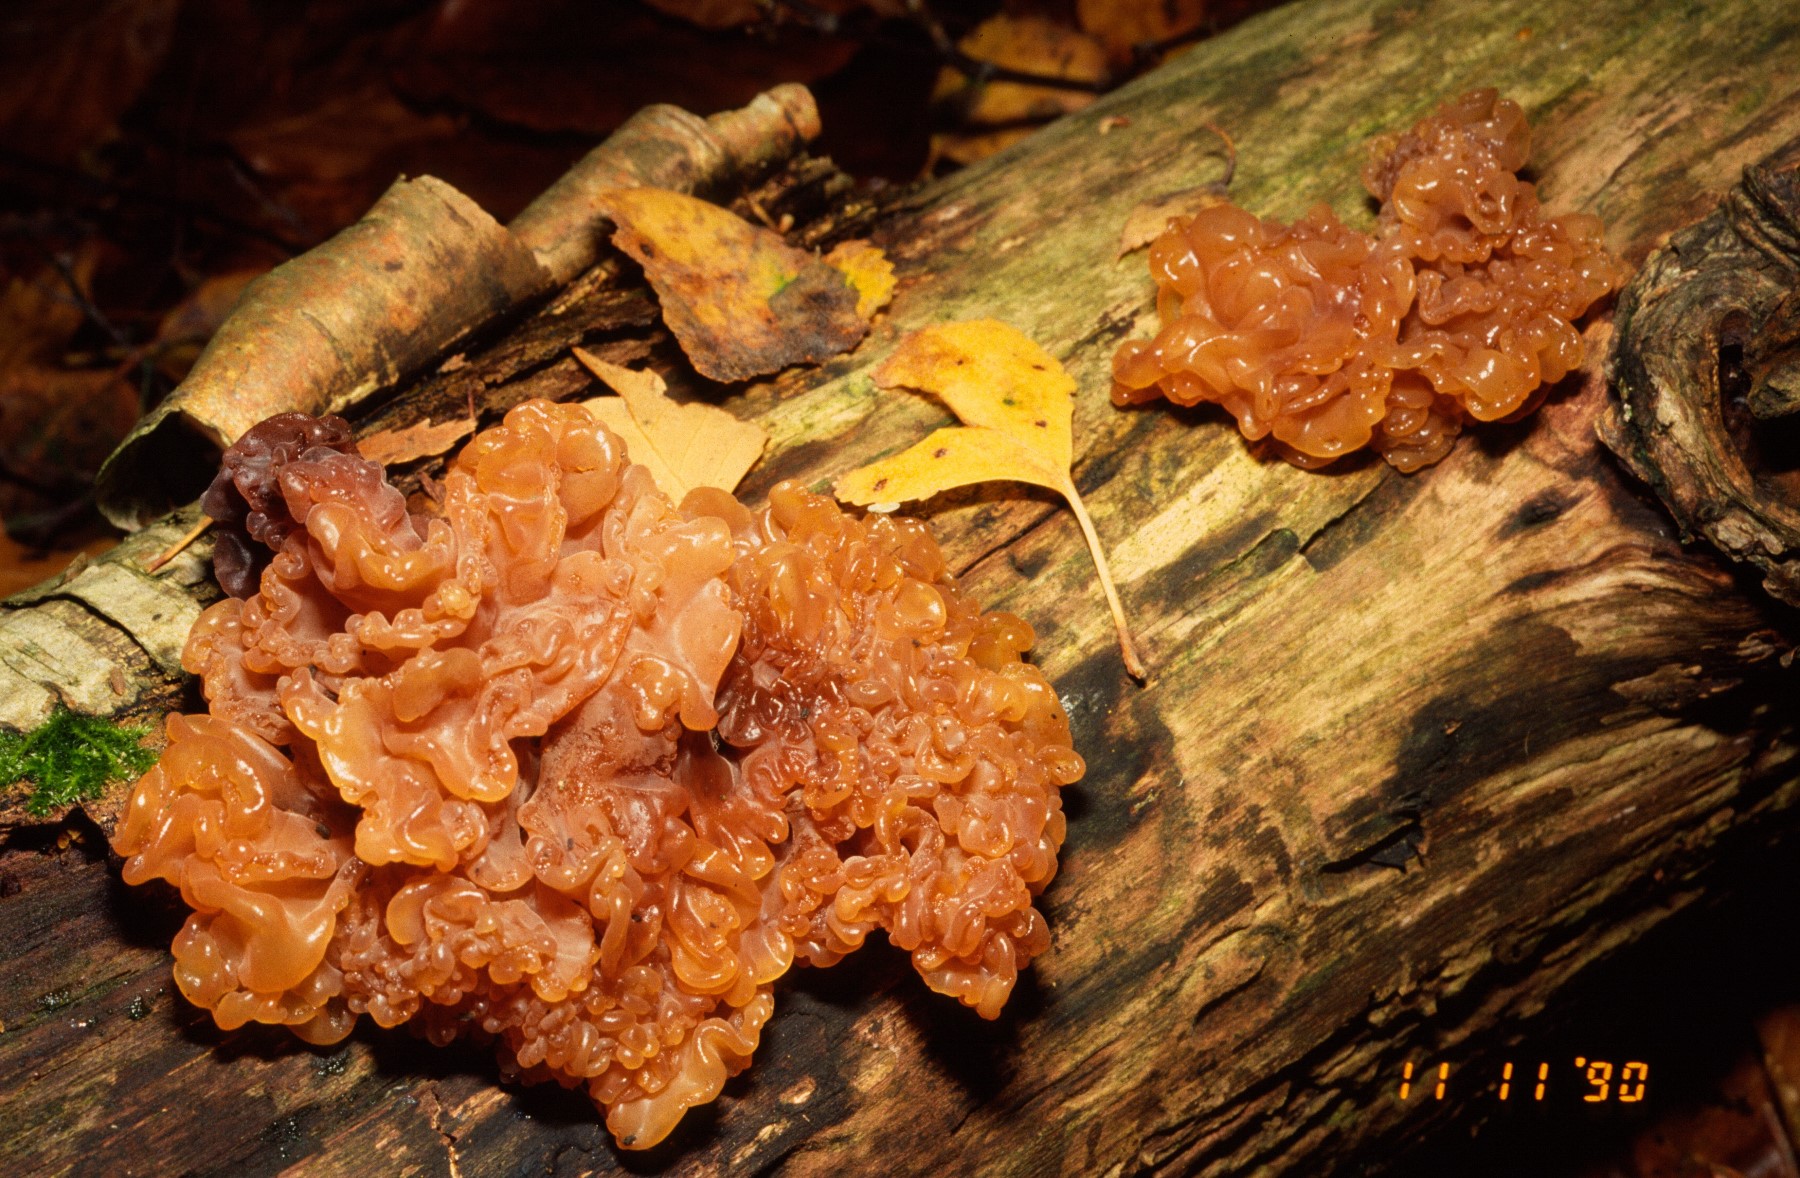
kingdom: Fungi
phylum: Basidiomycota
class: Tremellomycetes
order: Tremellales
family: Tremellaceae
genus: Phaeotremella
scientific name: Phaeotremella frondosa
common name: kæmpe-bævresvamp
